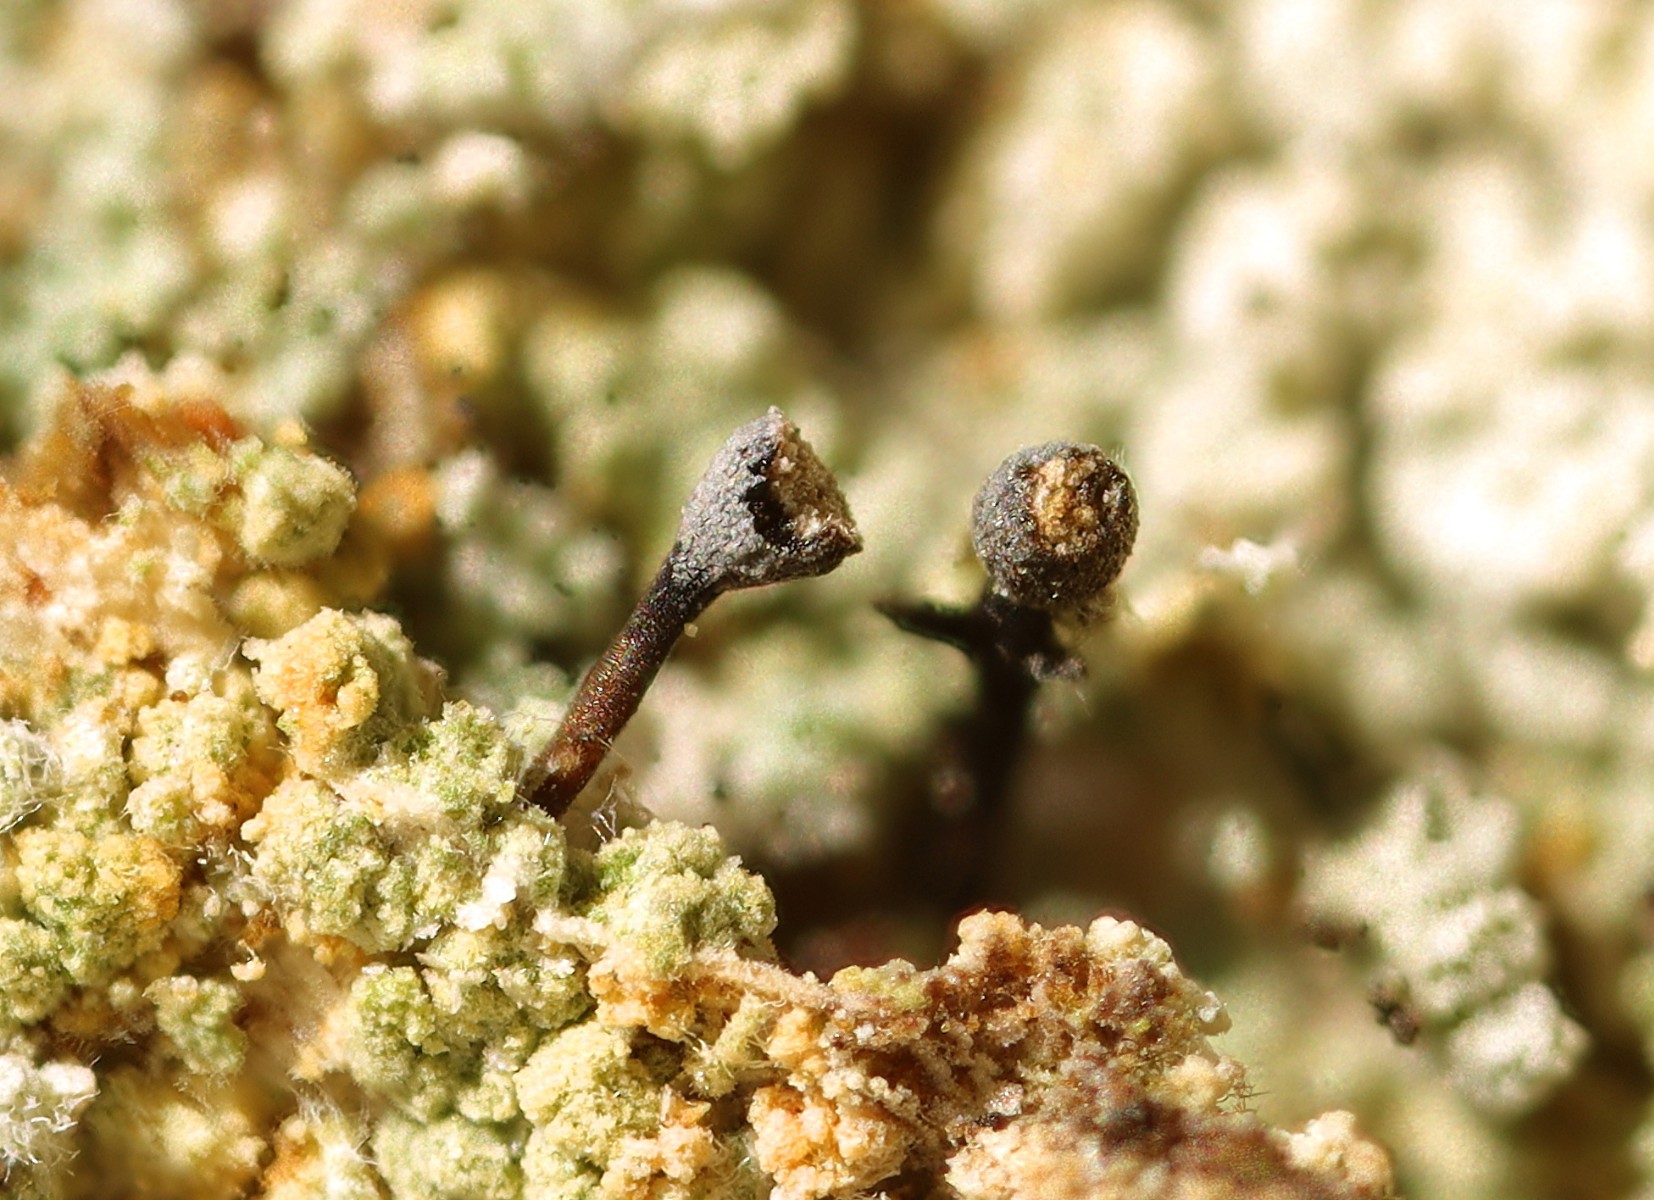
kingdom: Fungi
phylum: Ascomycota
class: Coniocybomycetes
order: Coniocybales
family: Coniocybaceae
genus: Chaenotheca
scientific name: Chaenotheca ferruginea
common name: rustbrun knappenålslav
